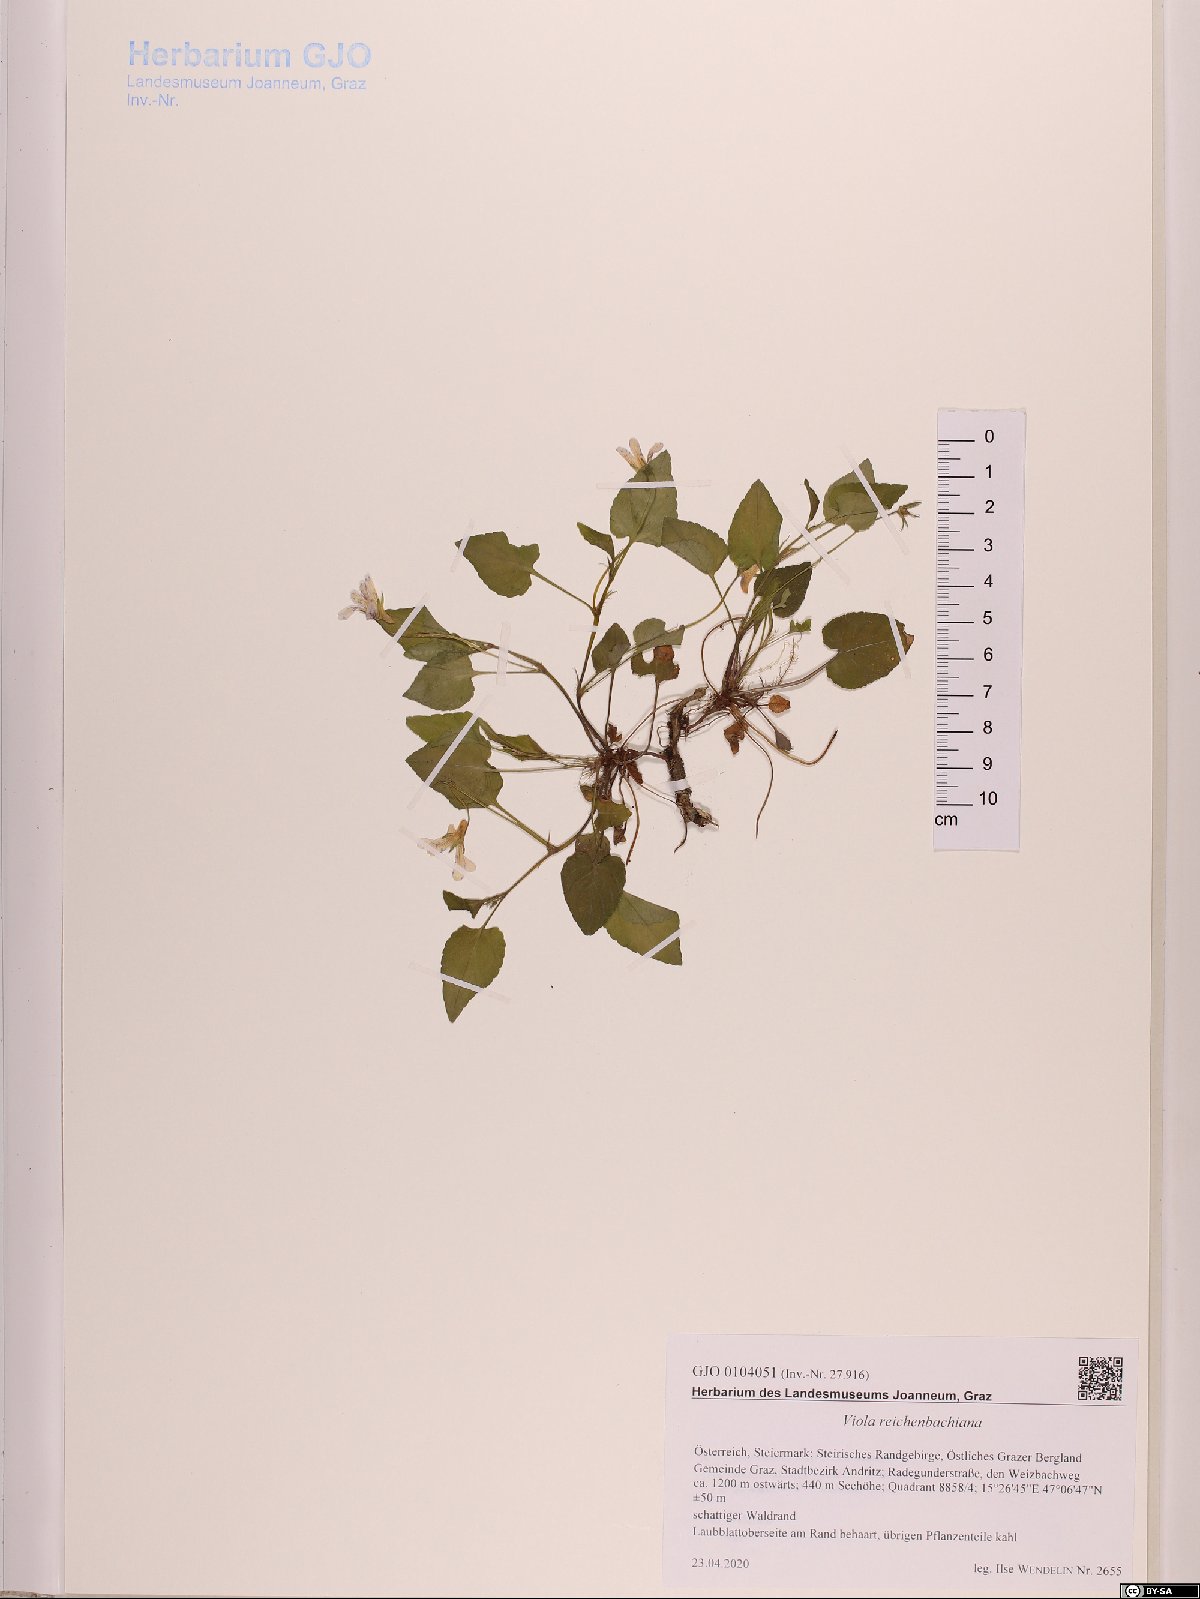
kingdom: Plantae
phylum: Tracheophyta
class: Magnoliopsida
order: Malpighiales
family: Violaceae
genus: Viola
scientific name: Viola reichenbachiana
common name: Early dog-violet
